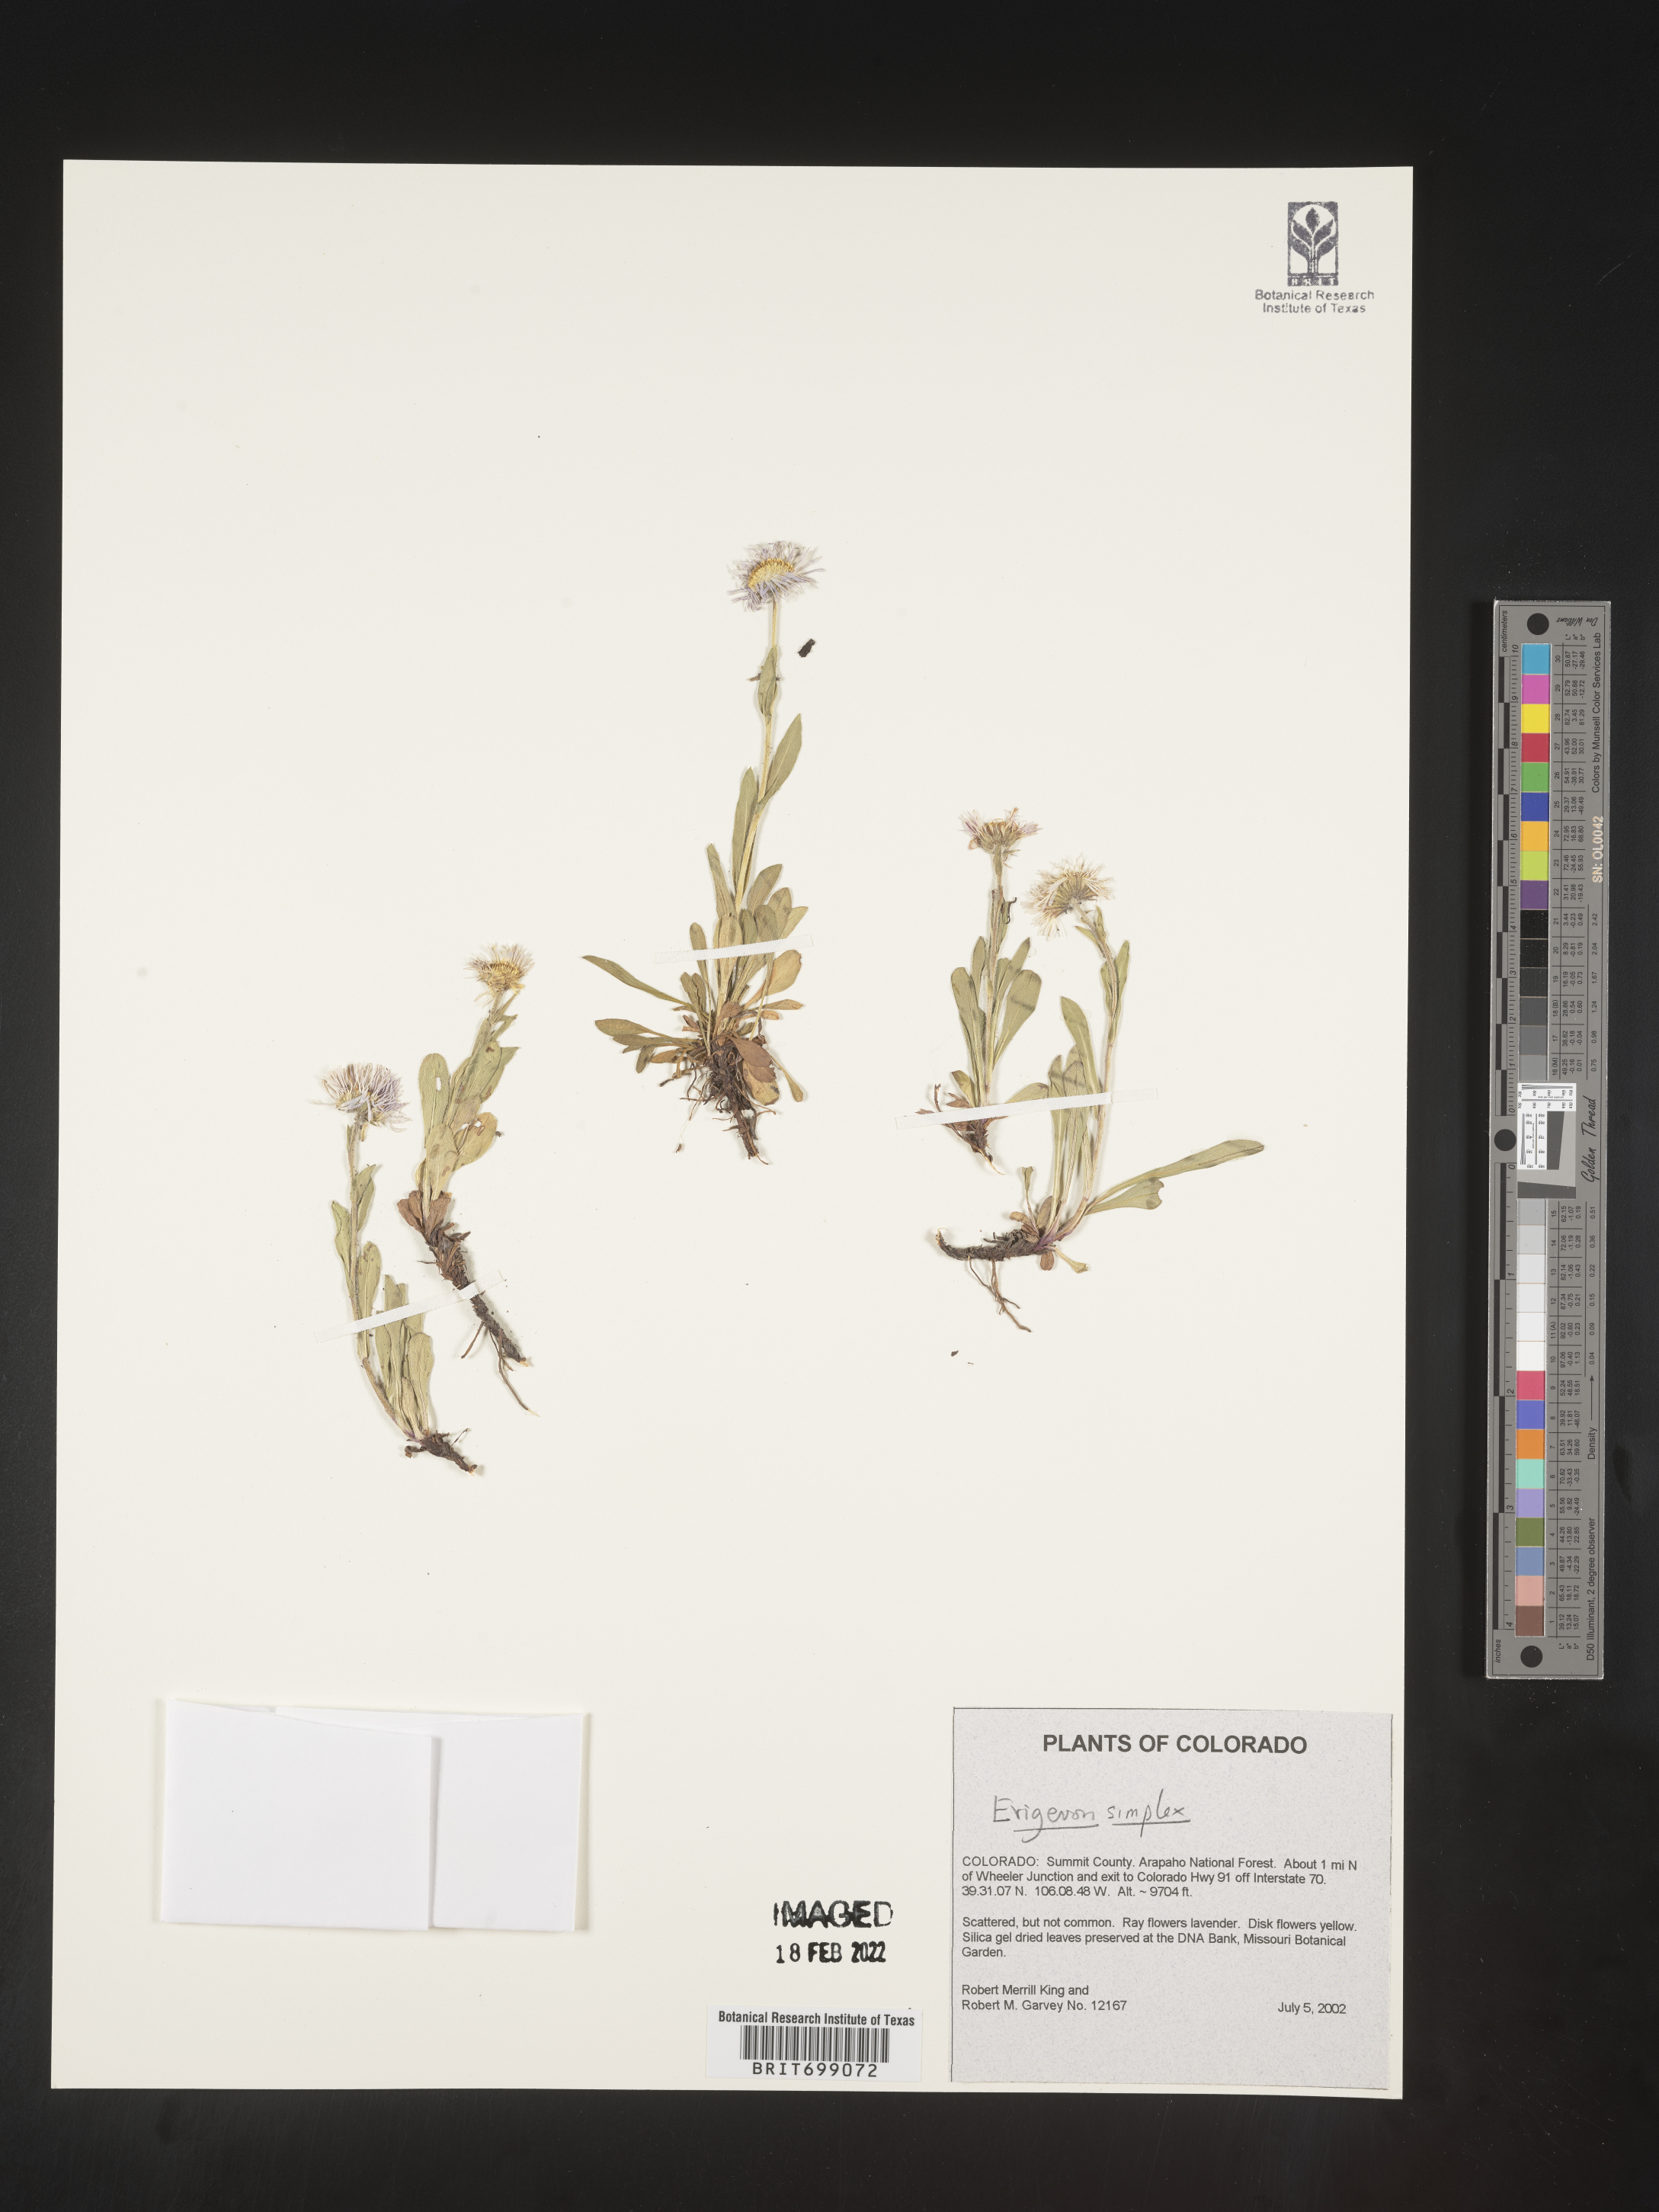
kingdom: Plantae
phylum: Tracheophyta
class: Magnoliopsida
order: Asterales
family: Asteraceae
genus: Erigeron
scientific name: Erigeron caucasicus
